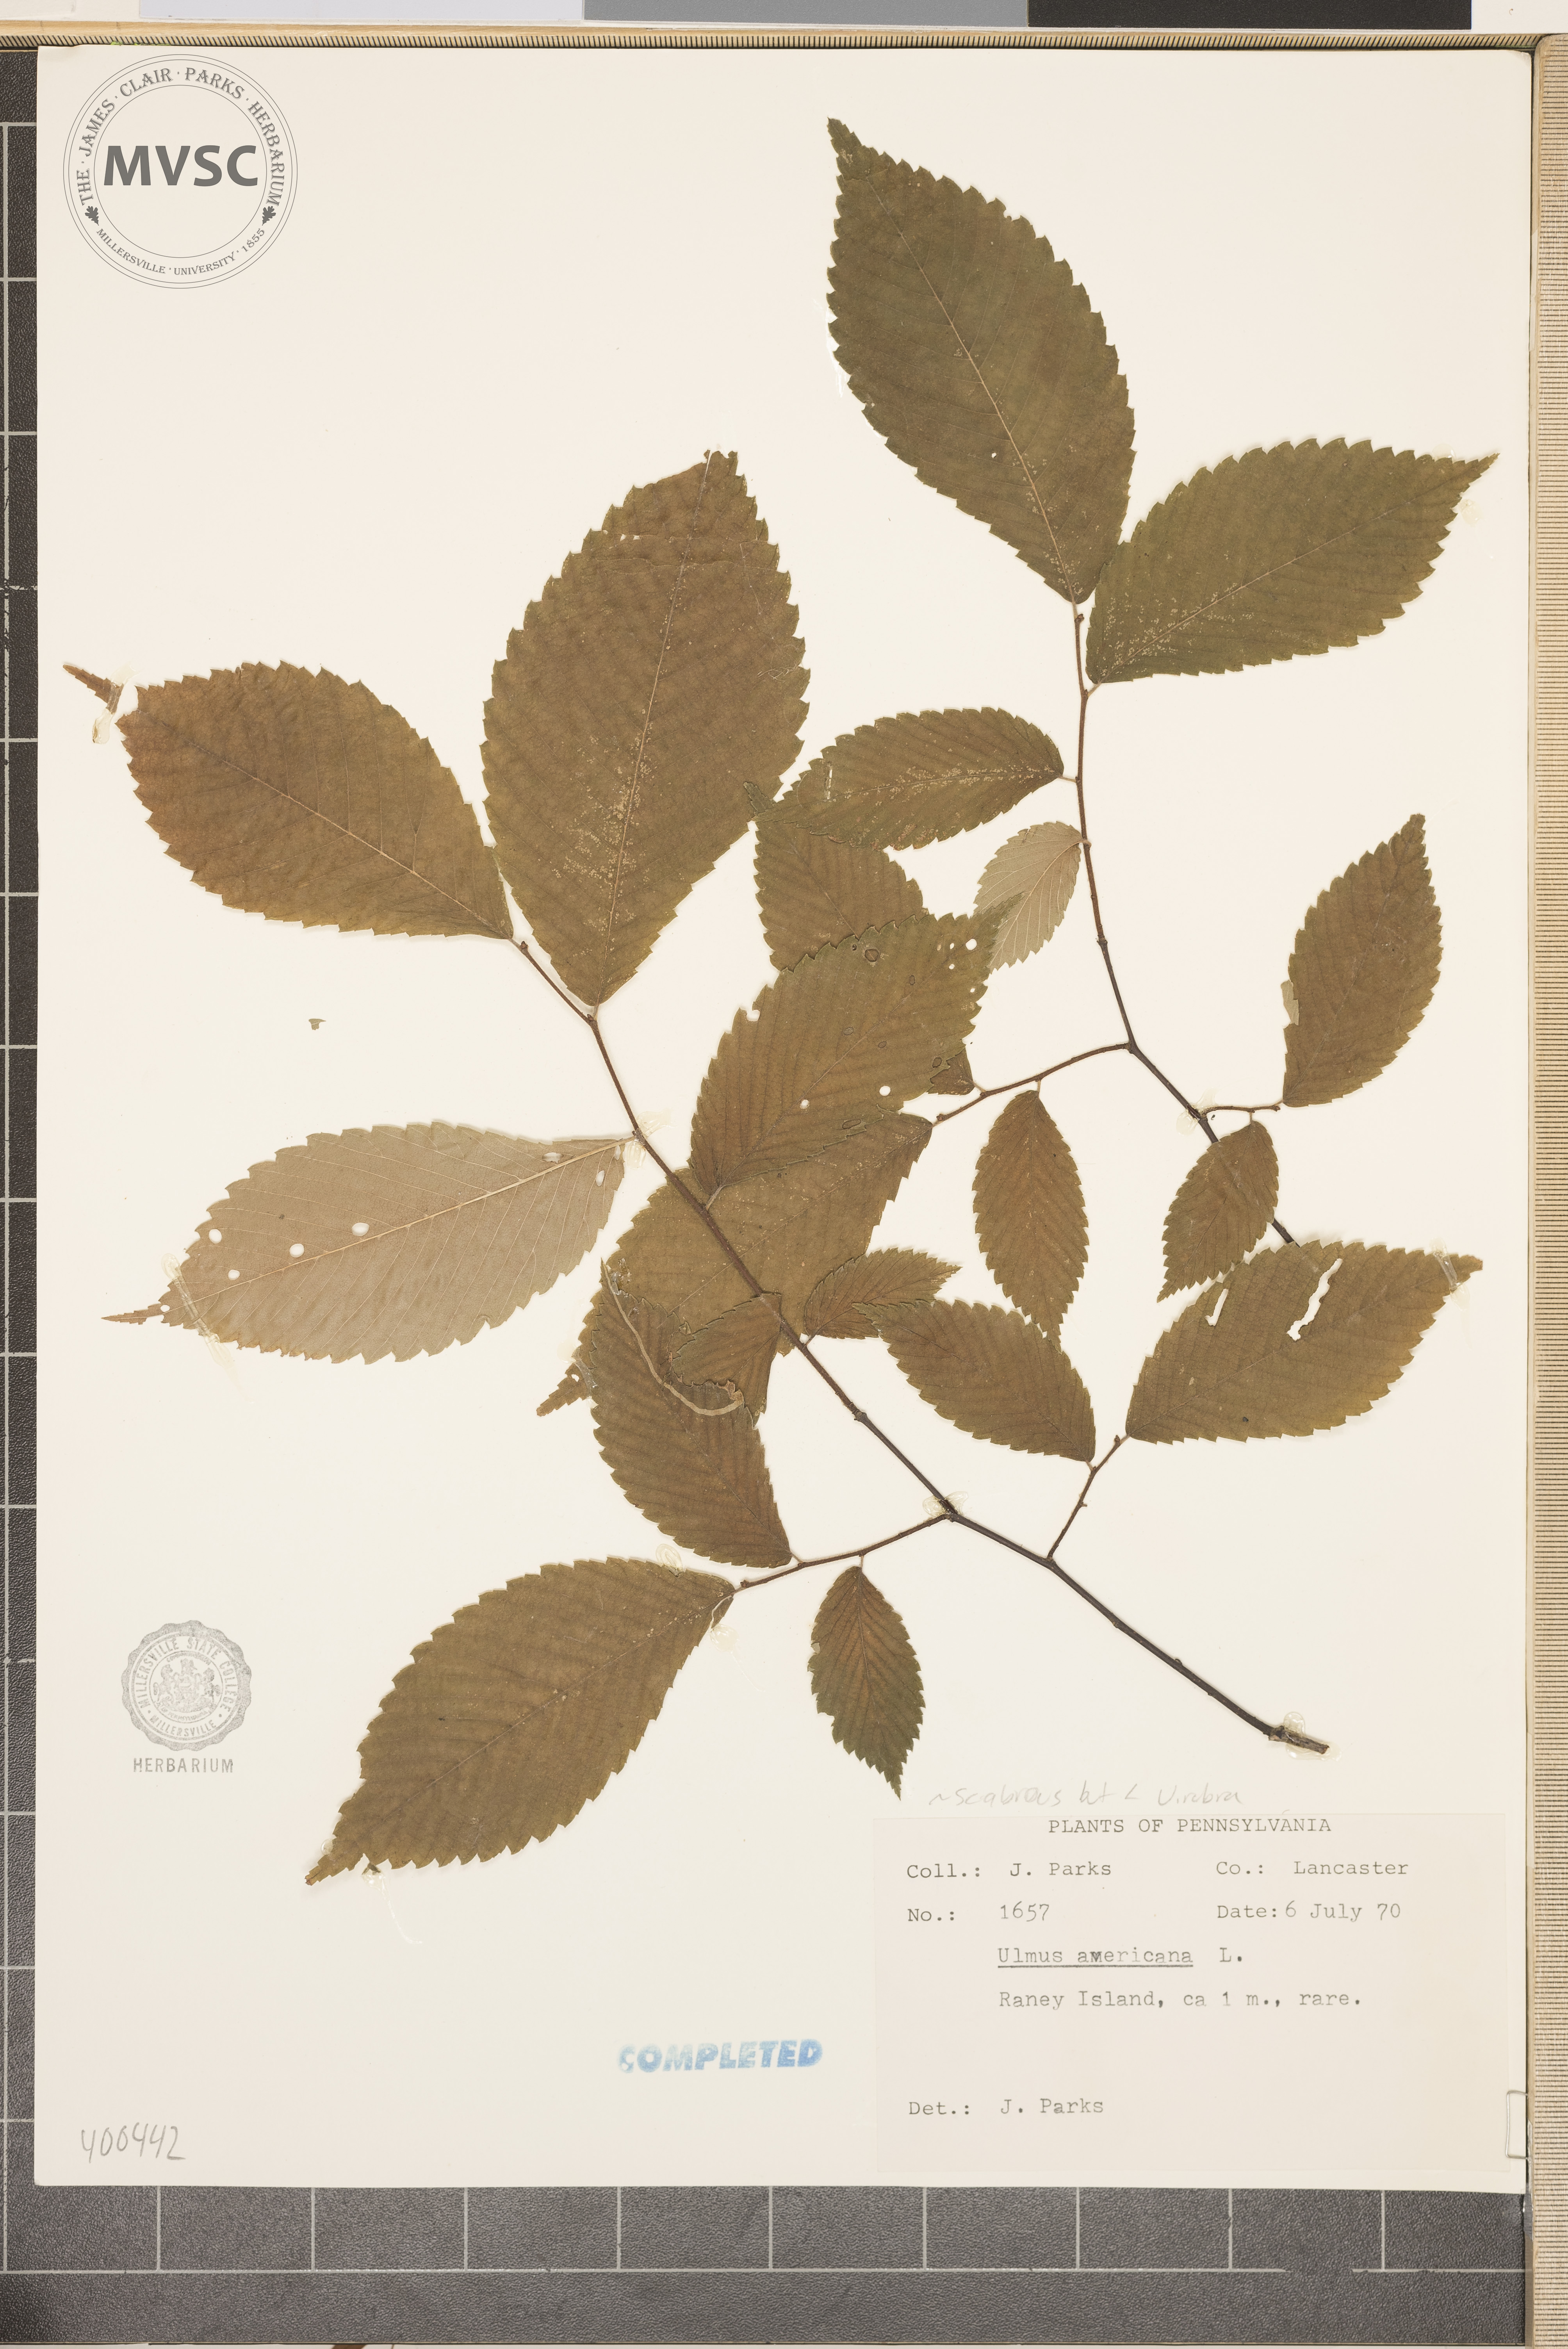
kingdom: Plantae
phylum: Tracheophyta
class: Magnoliopsida
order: Rosales
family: Ulmaceae
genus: Ulmus
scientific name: Ulmus americana
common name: American elm
